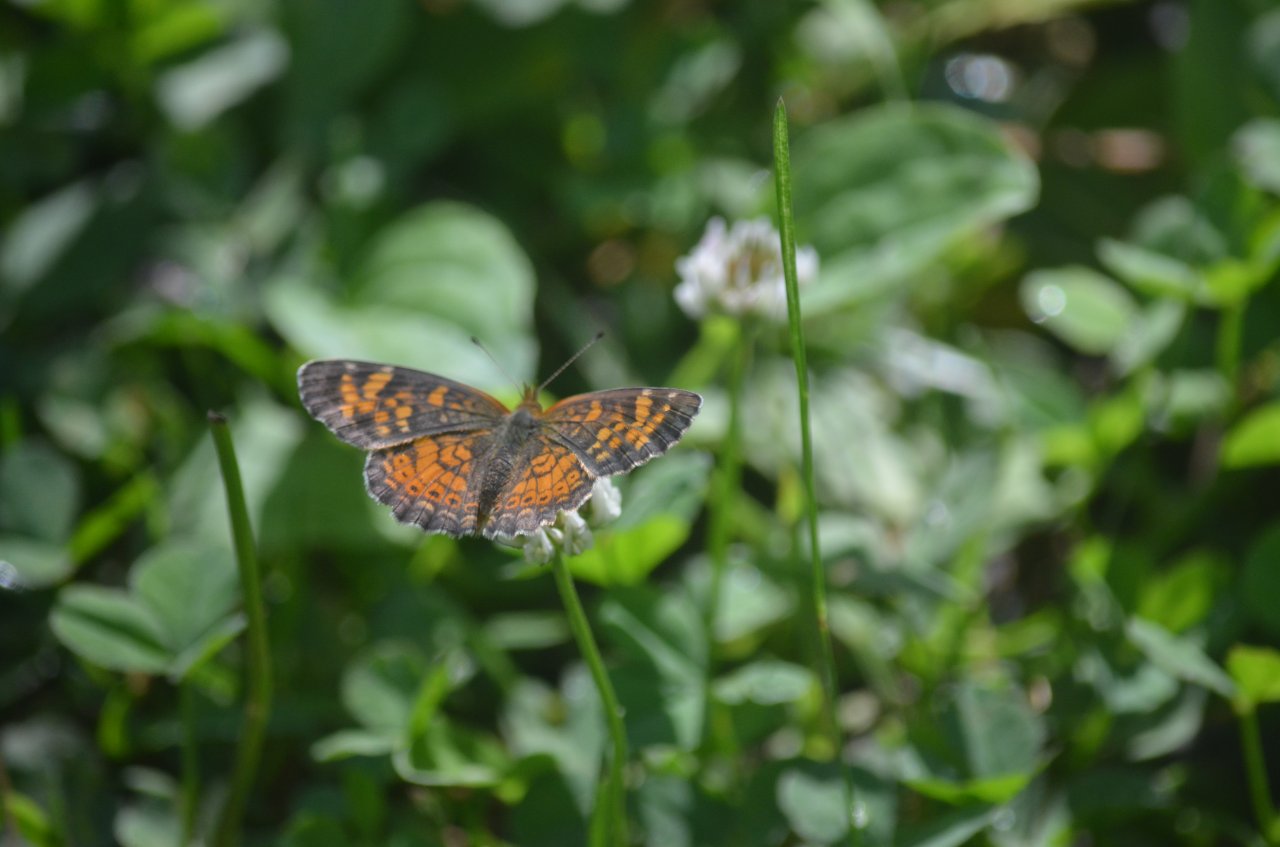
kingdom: Animalia
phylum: Arthropoda
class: Insecta
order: Lepidoptera
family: Nymphalidae
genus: Phyciodes
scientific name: Phyciodes tharos
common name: Northern Crescent
